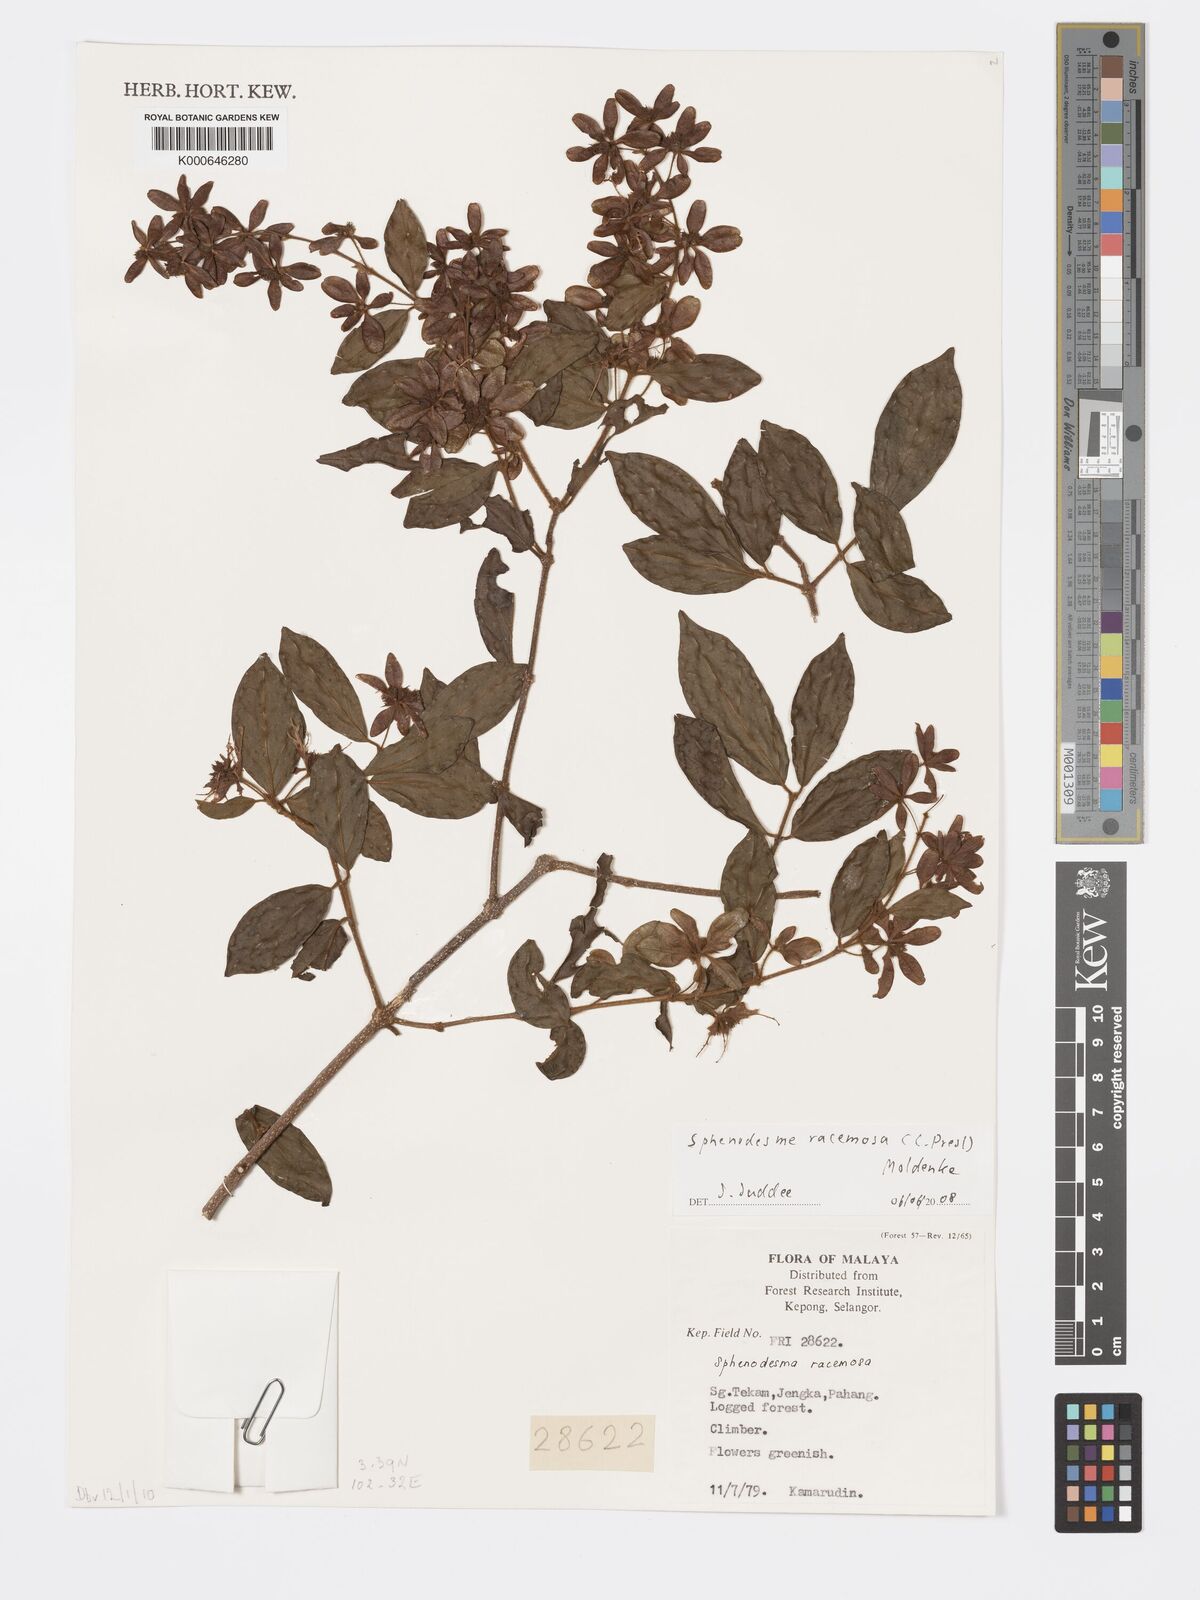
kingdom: Plantae
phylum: Tracheophyta
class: Magnoliopsida
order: Lamiales
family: Lamiaceae
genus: Sphenodesme
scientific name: Sphenodesme racemosa
